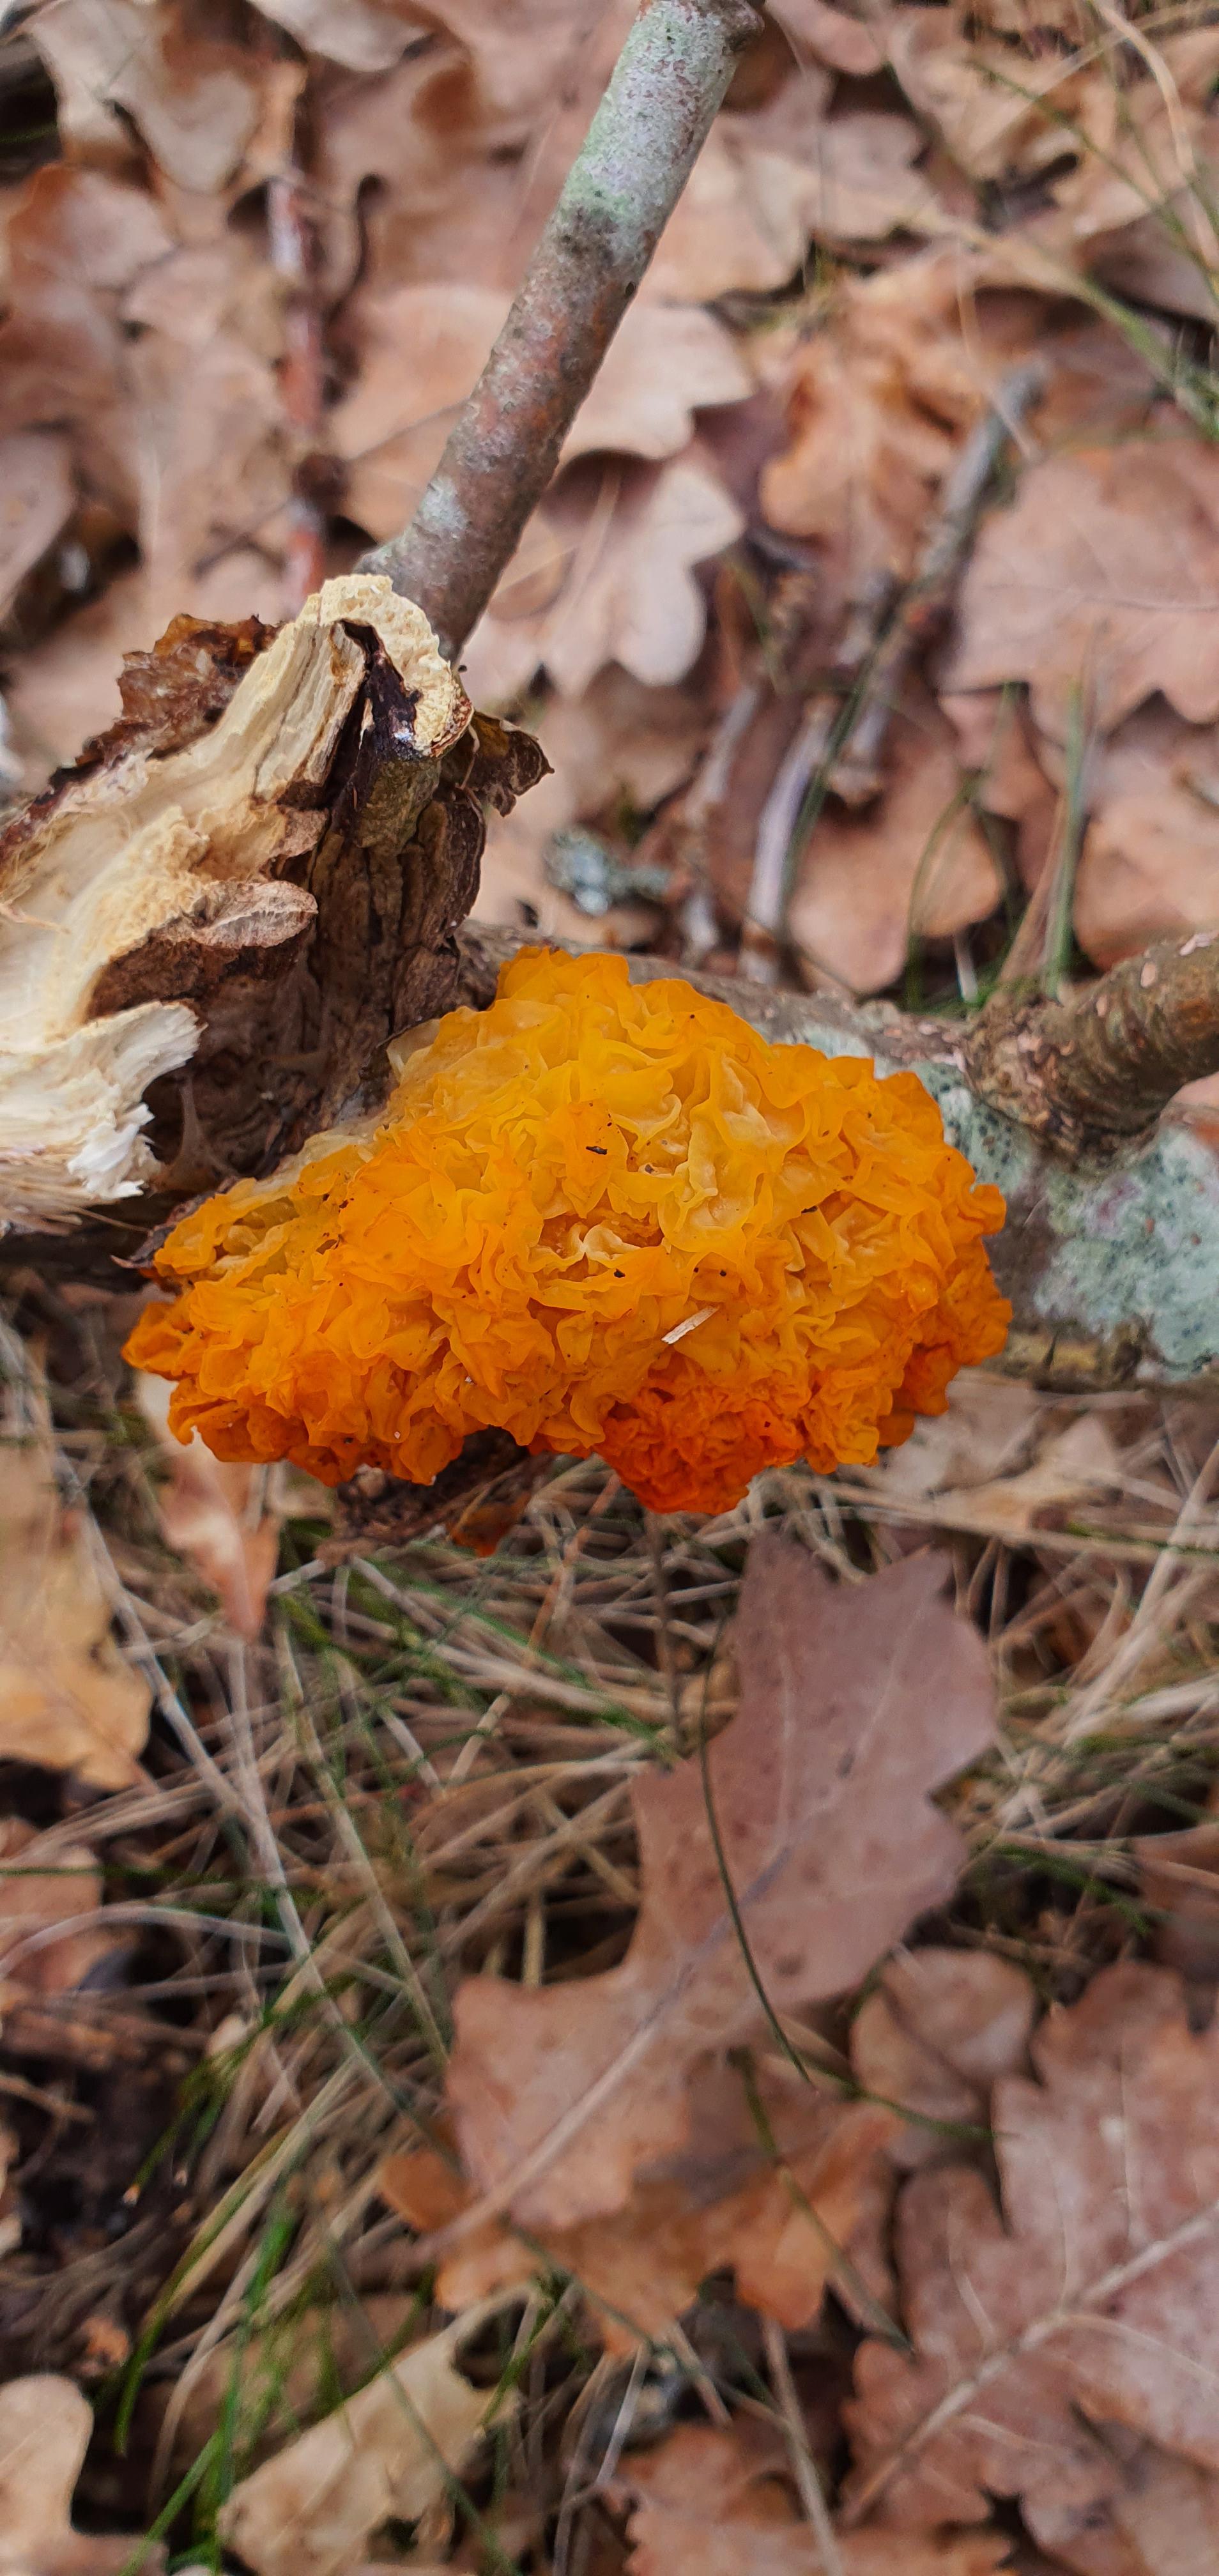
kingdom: Fungi
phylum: Basidiomycota
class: Tremellomycetes
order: Tremellales
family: Tremellaceae
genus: Tremella
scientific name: Tremella mesenterica
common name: gul bævresvamp
